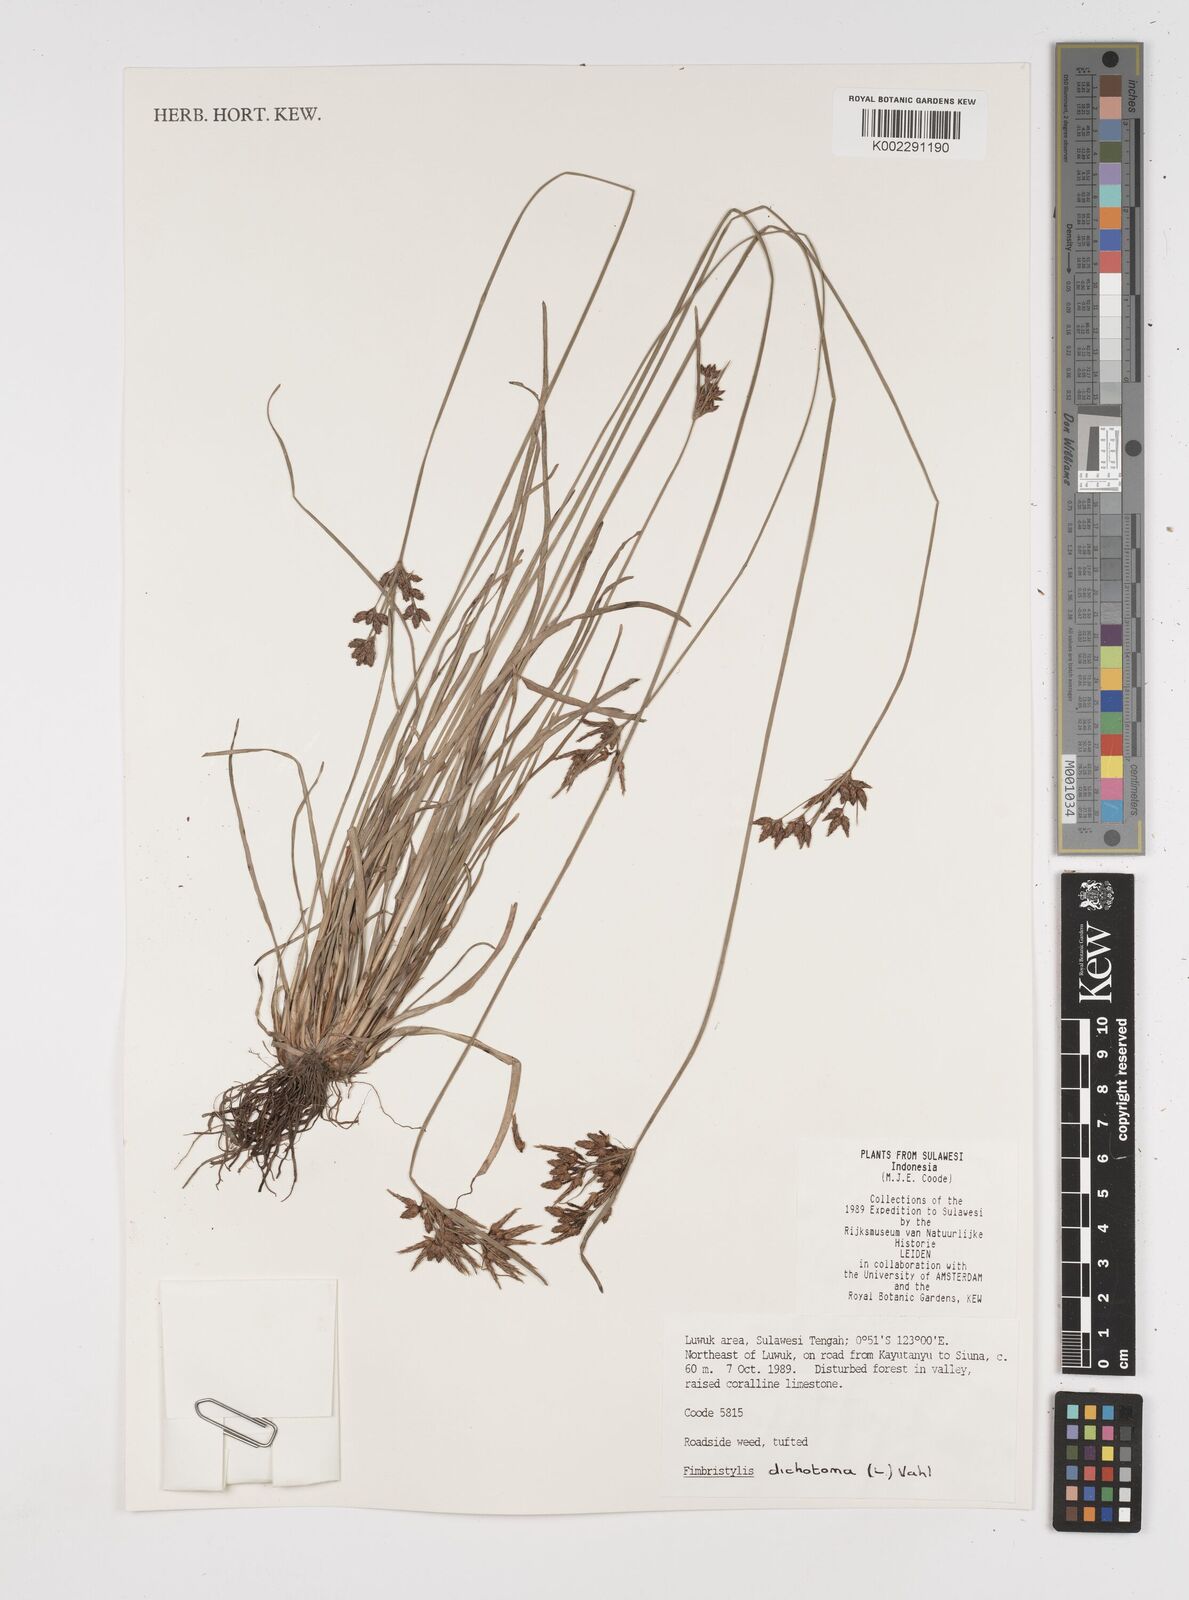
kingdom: Plantae
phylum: Tracheophyta
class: Liliopsida
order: Poales
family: Cyperaceae
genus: Fimbristylis
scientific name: Fimbristylis dichotoma
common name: Forked fimbry
